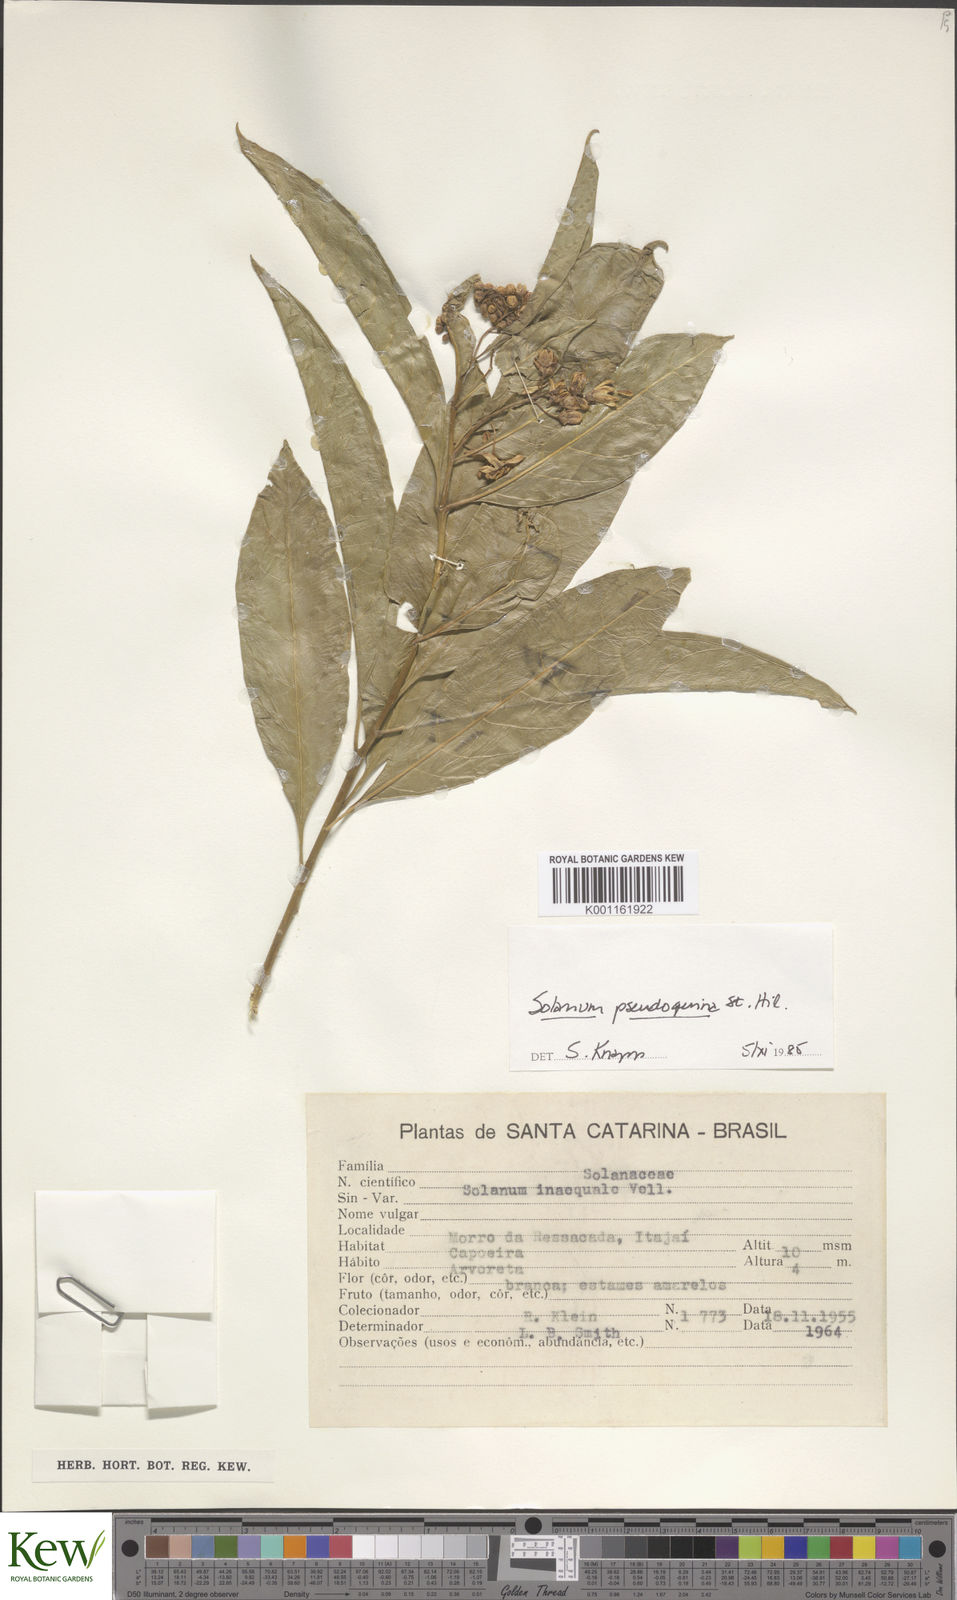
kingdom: Plantae
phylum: Tracheophyta
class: Magnoliopsida
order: Solanales
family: Solanaceae
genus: Solanum
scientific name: Solanum pseudoquina
